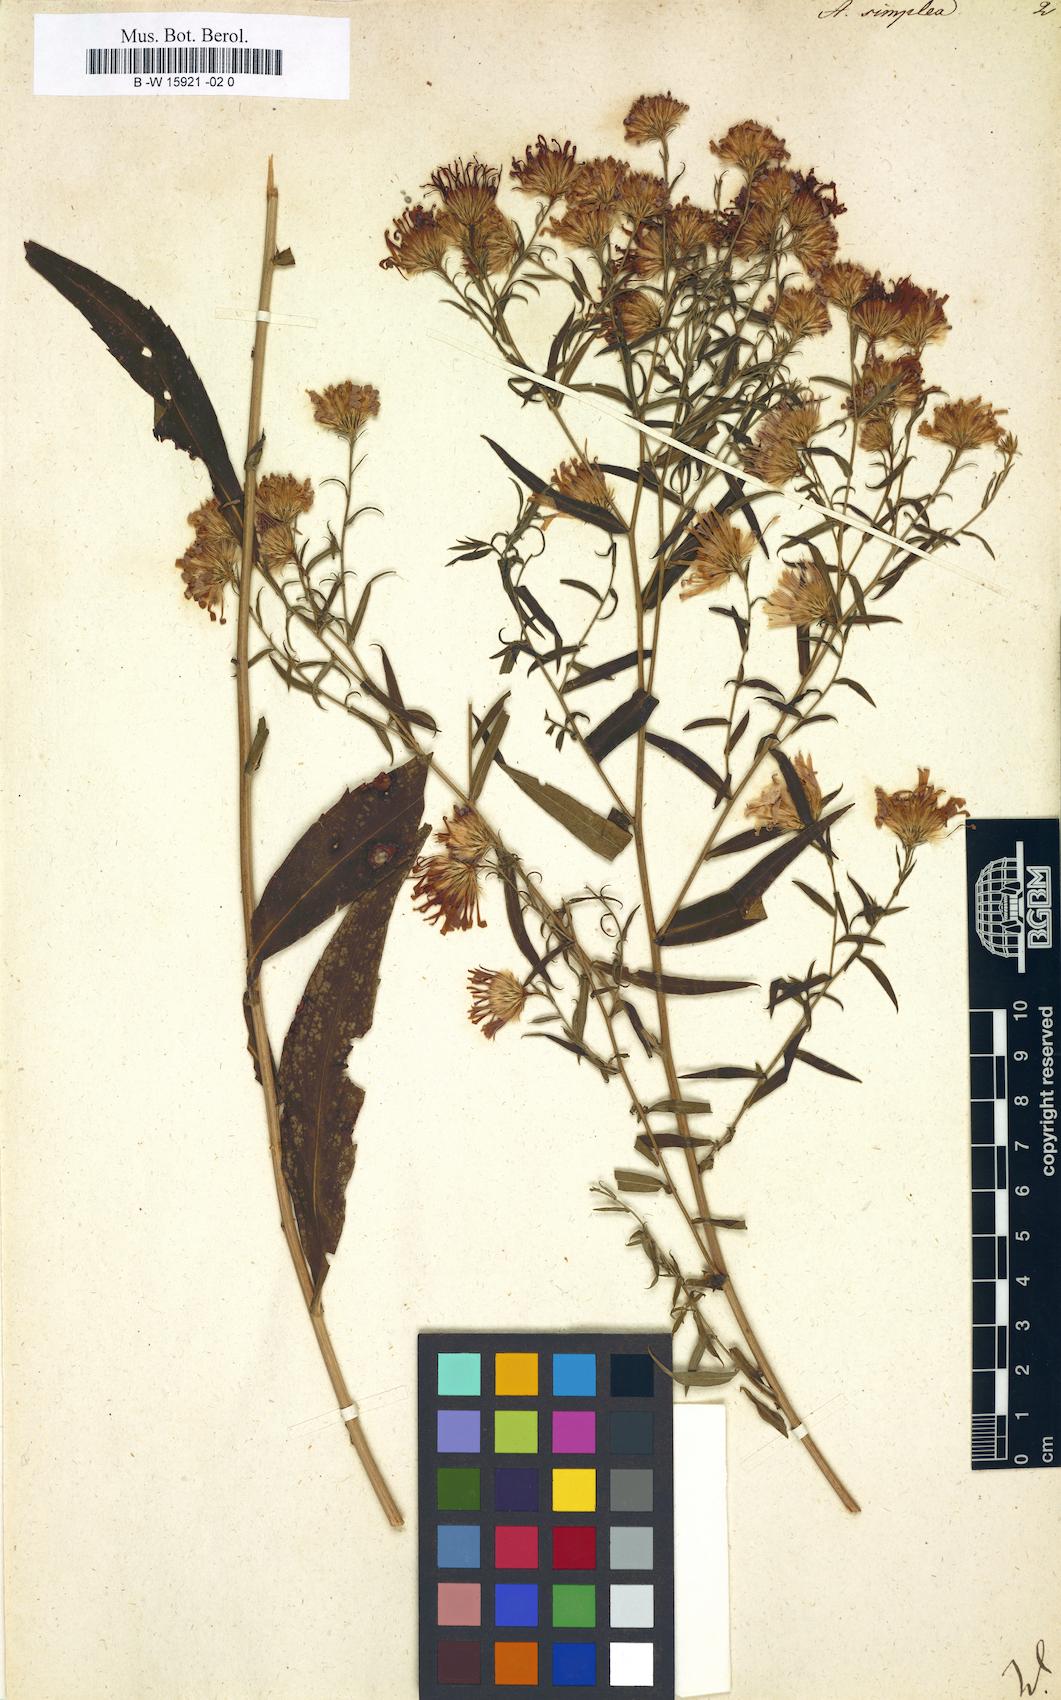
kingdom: Plantae
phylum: Tracheophyta
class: Magnoliopsida
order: Asterales
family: Asteraceae
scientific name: Asteraceae
